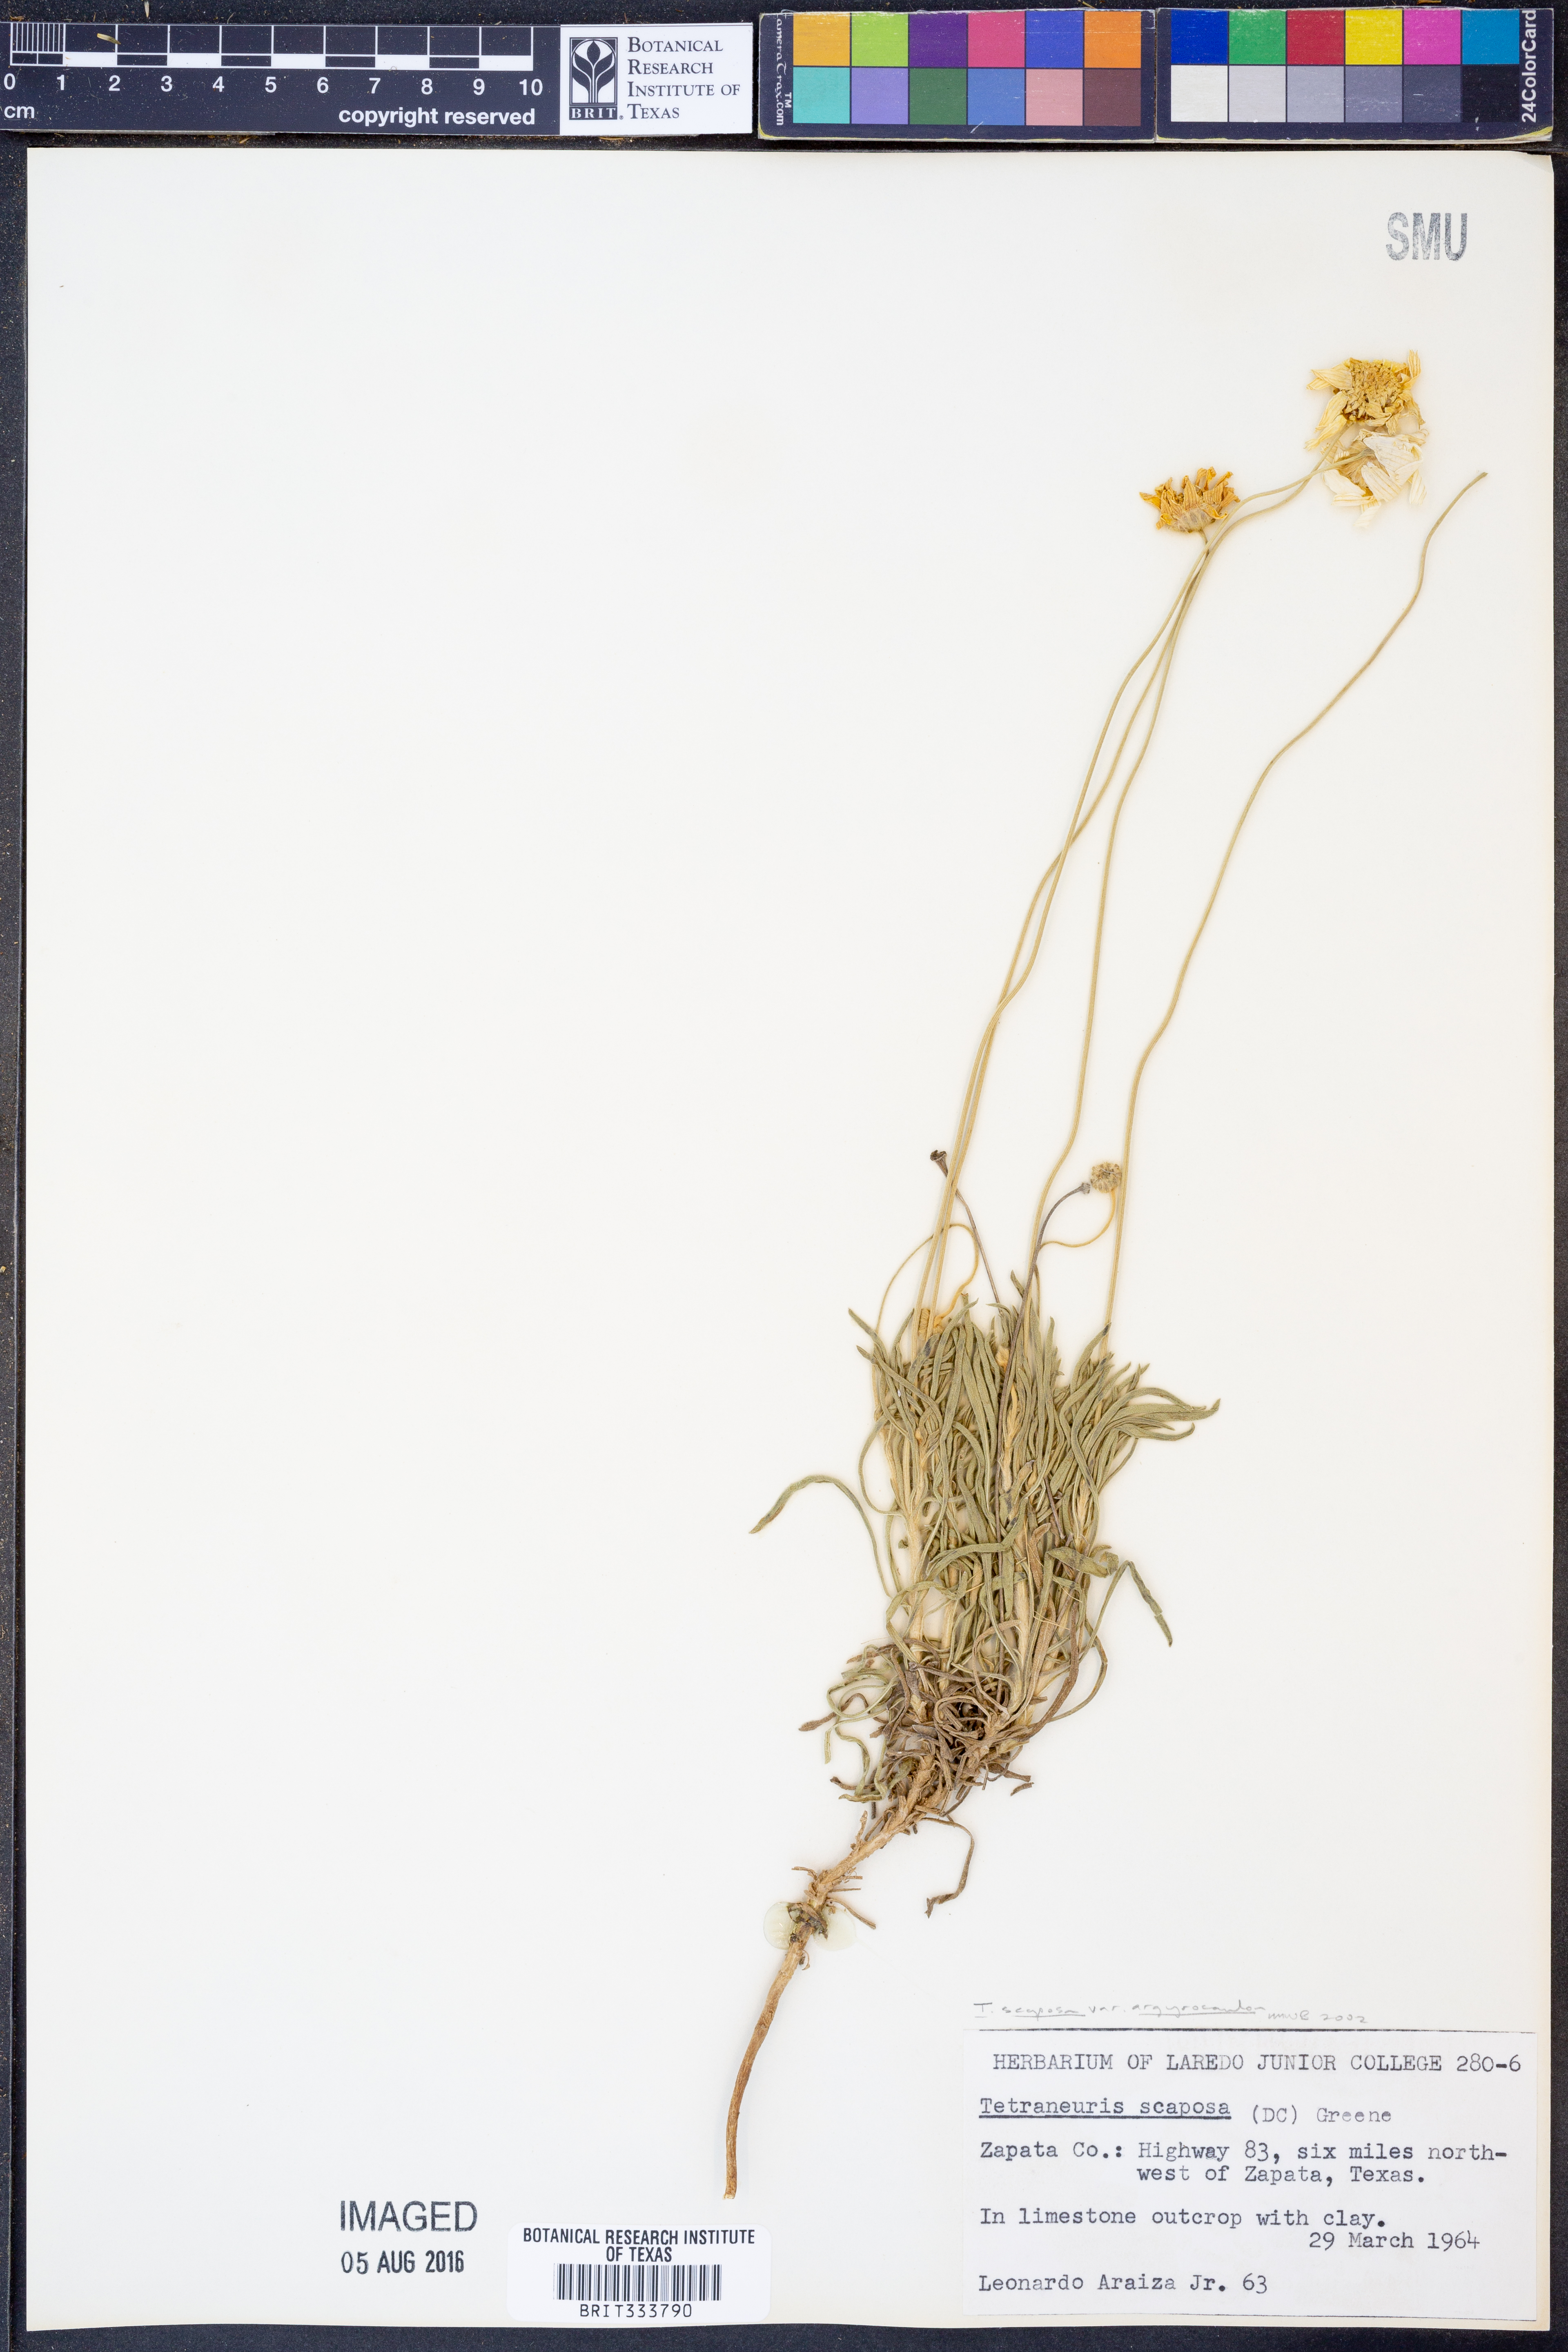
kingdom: Plantae
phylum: Tracheophyta
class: Magnoliopsida
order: Asterales
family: Asteraceae
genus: Tetraneuris
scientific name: Tetraneuris scaposa
